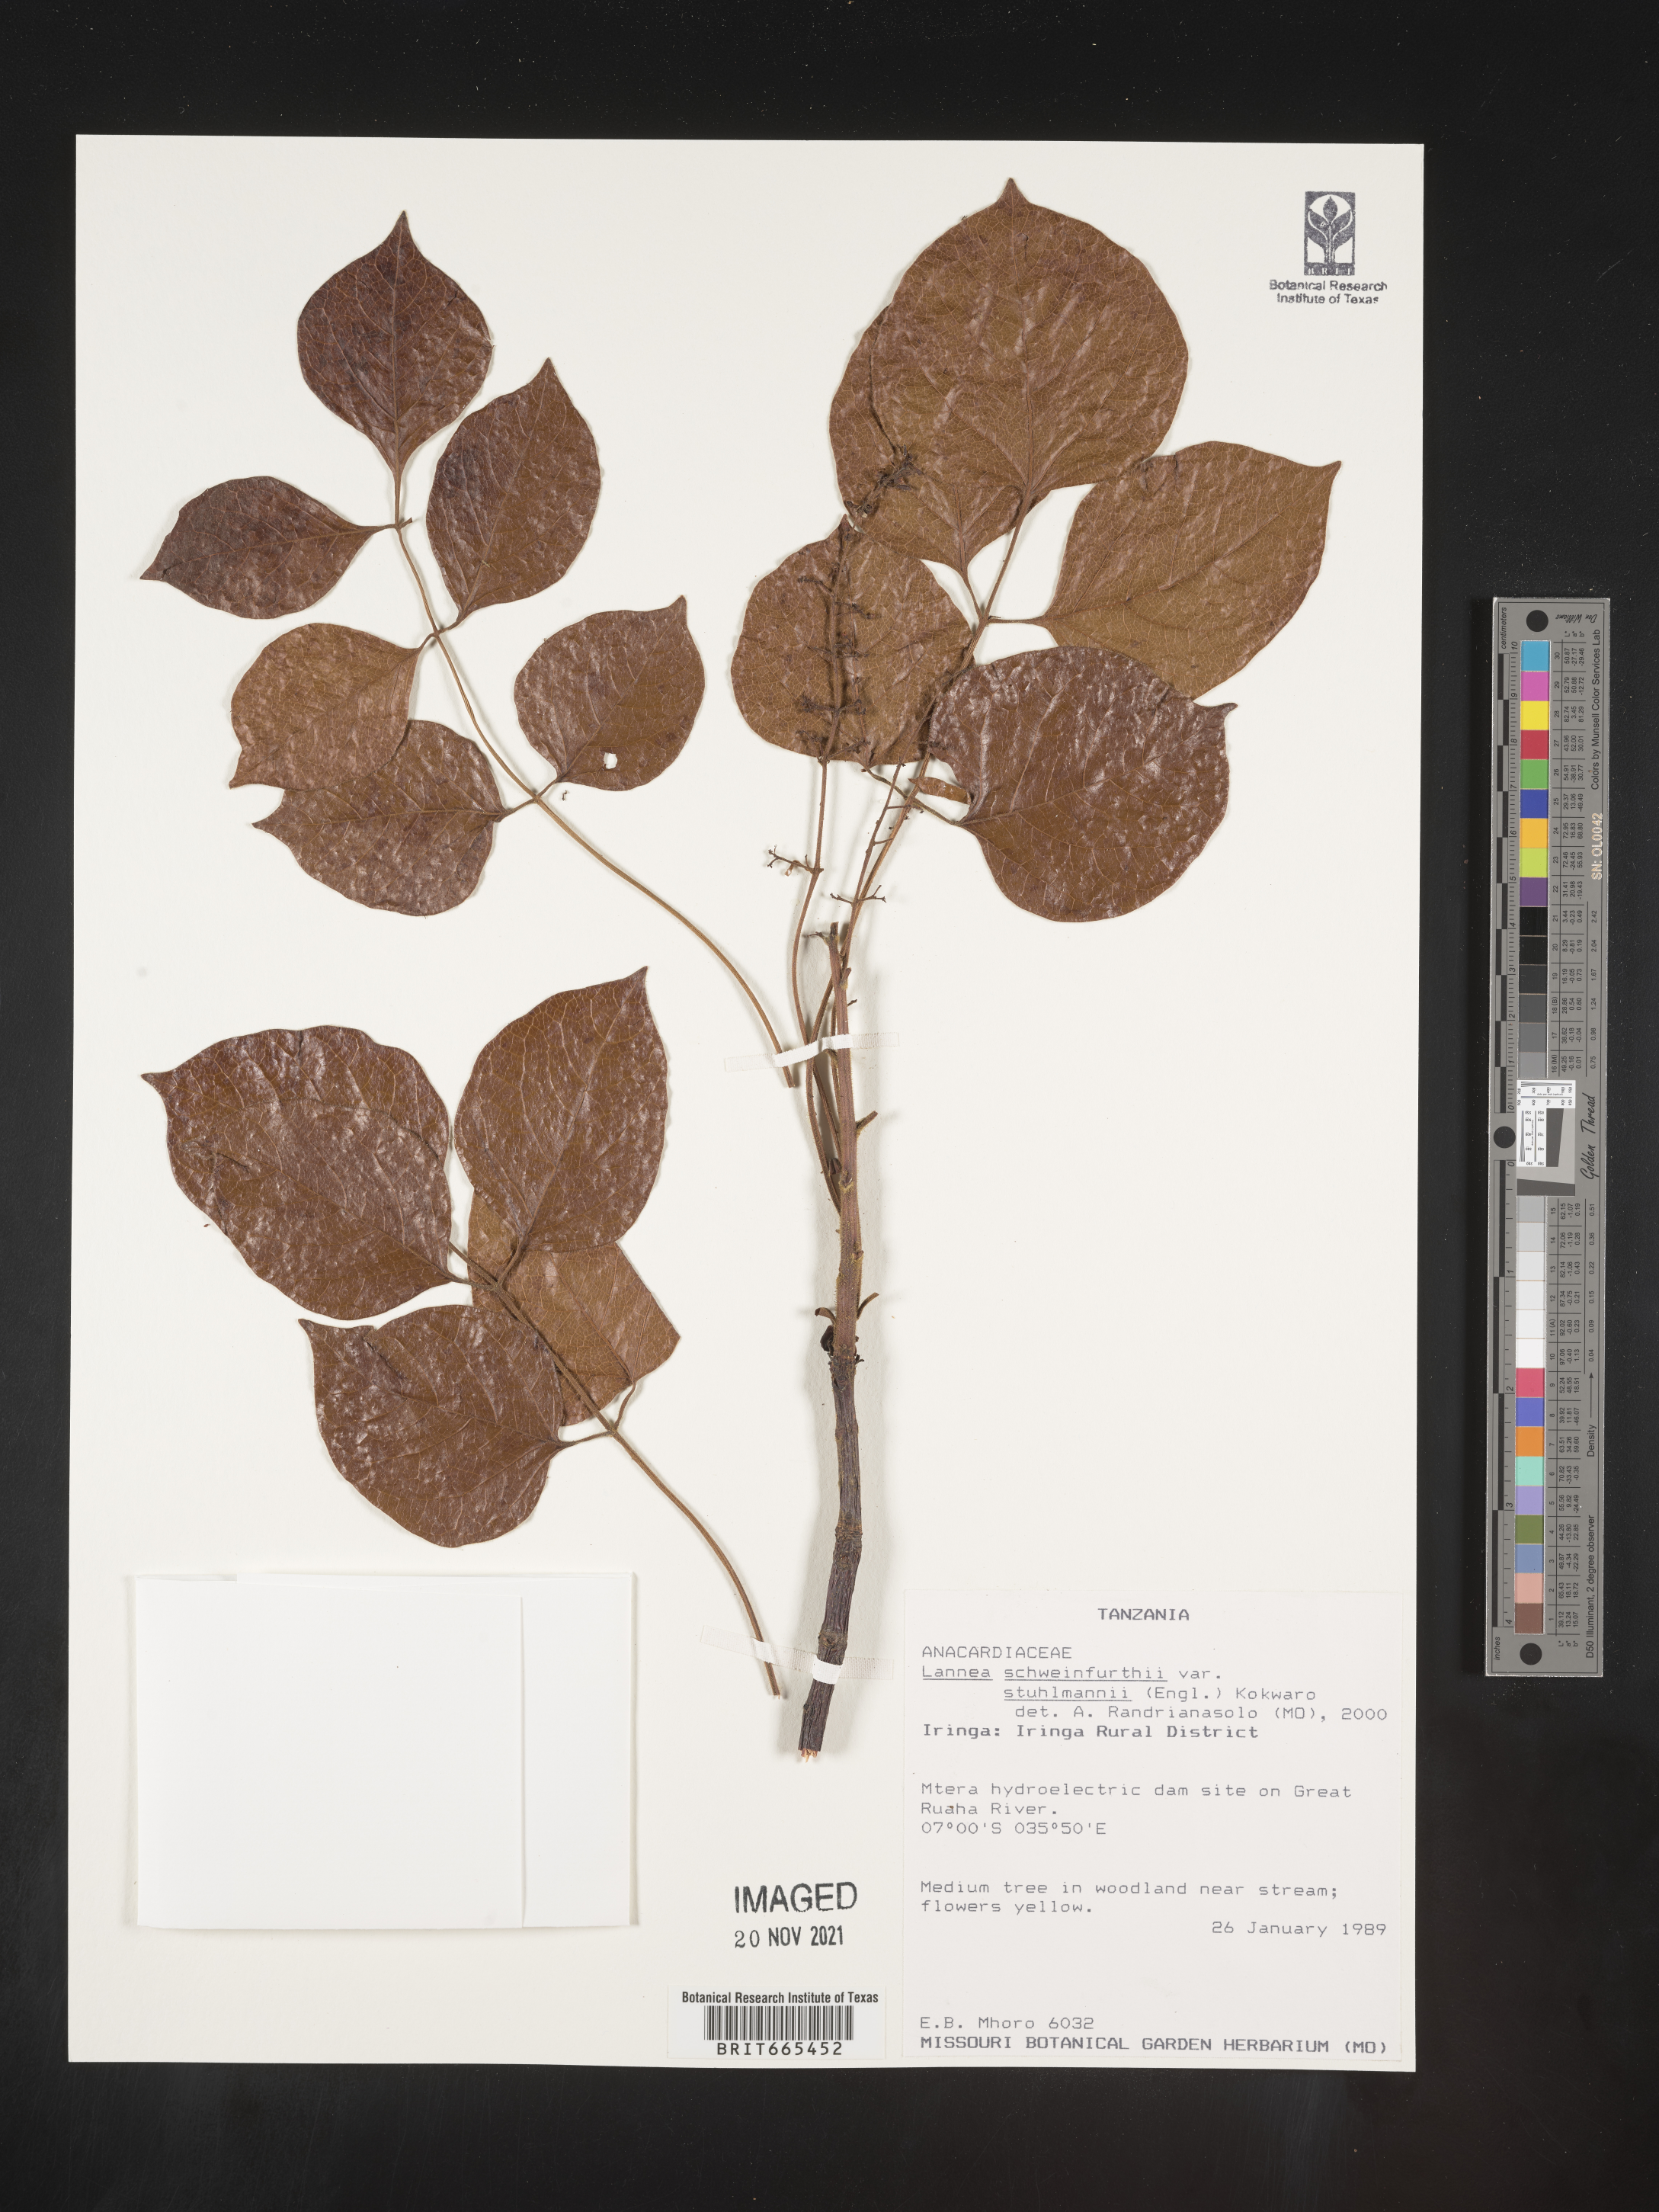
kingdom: Plantae
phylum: Tracheophyta
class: Magnoliopsida
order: Sapindales
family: Anacardiaceae
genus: Lannea
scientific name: Lannea schweinfurthii
